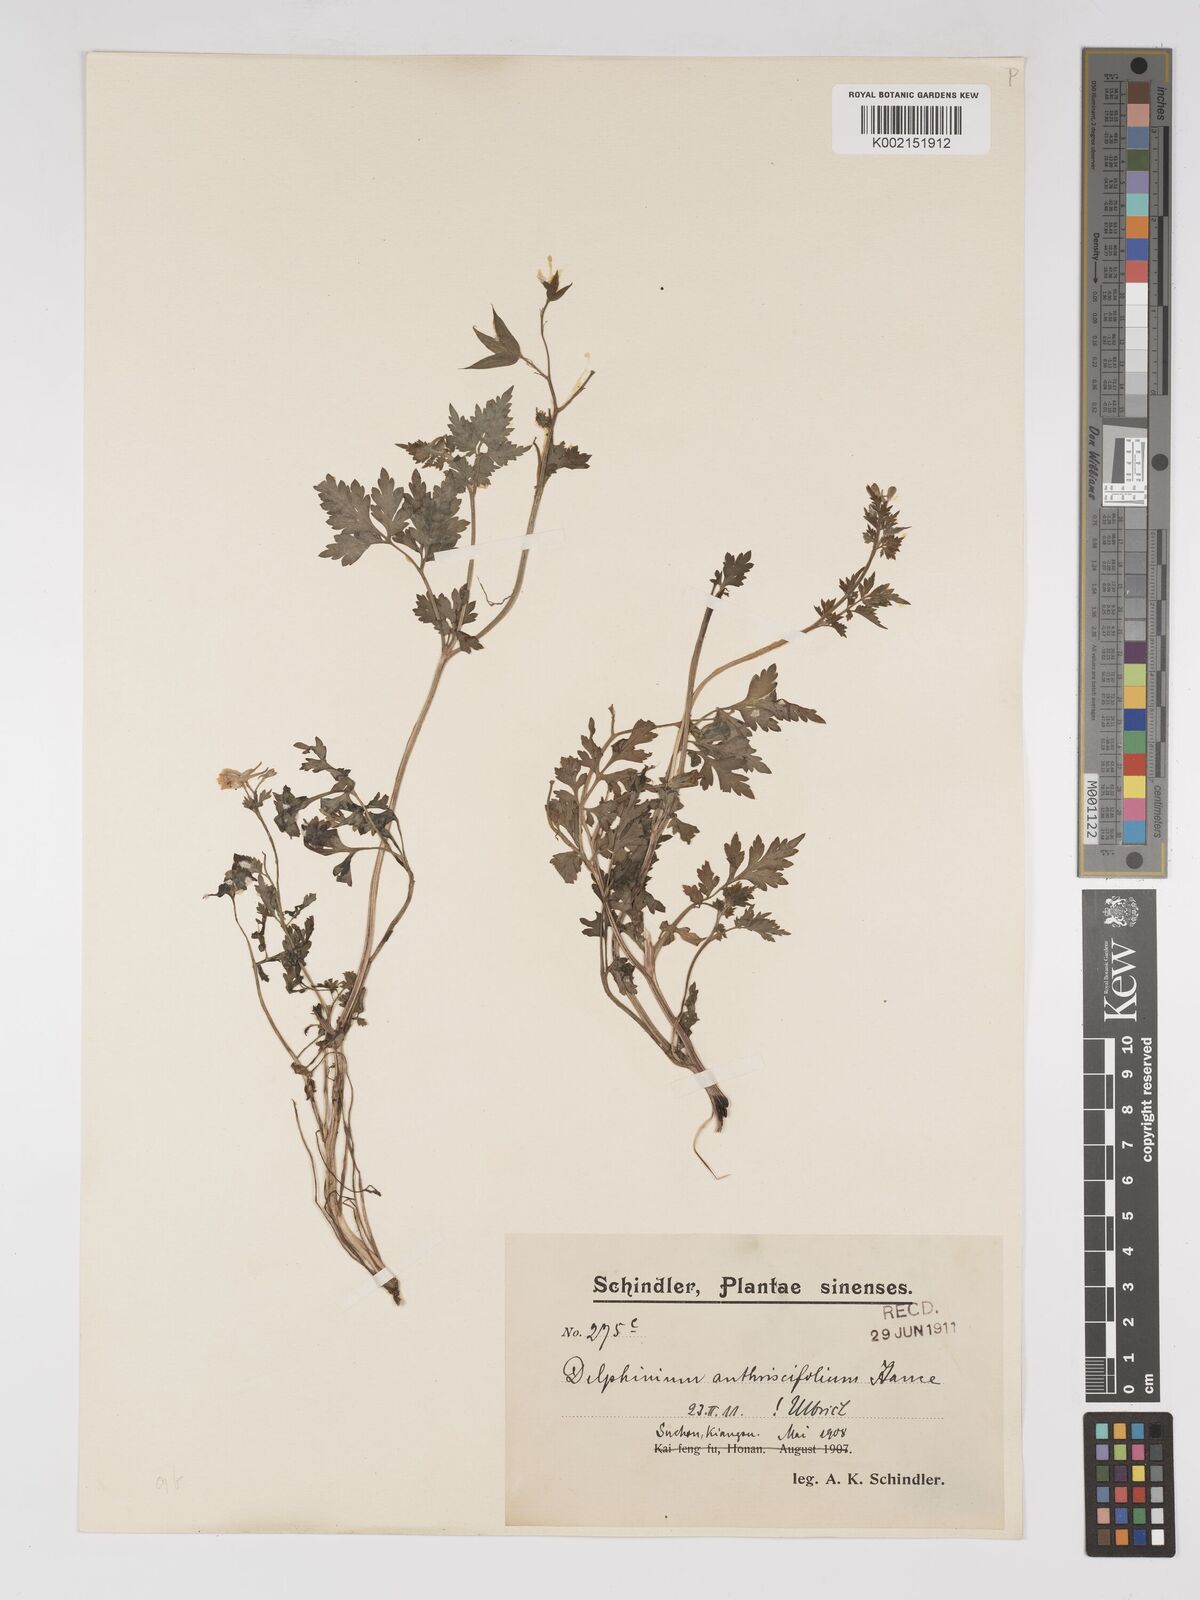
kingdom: Plantae
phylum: Tracheophyta
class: Magnoliopsida
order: Ranunculales
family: Ranunculaceae
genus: Delphinium
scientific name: Delphinium anthriscifolium
